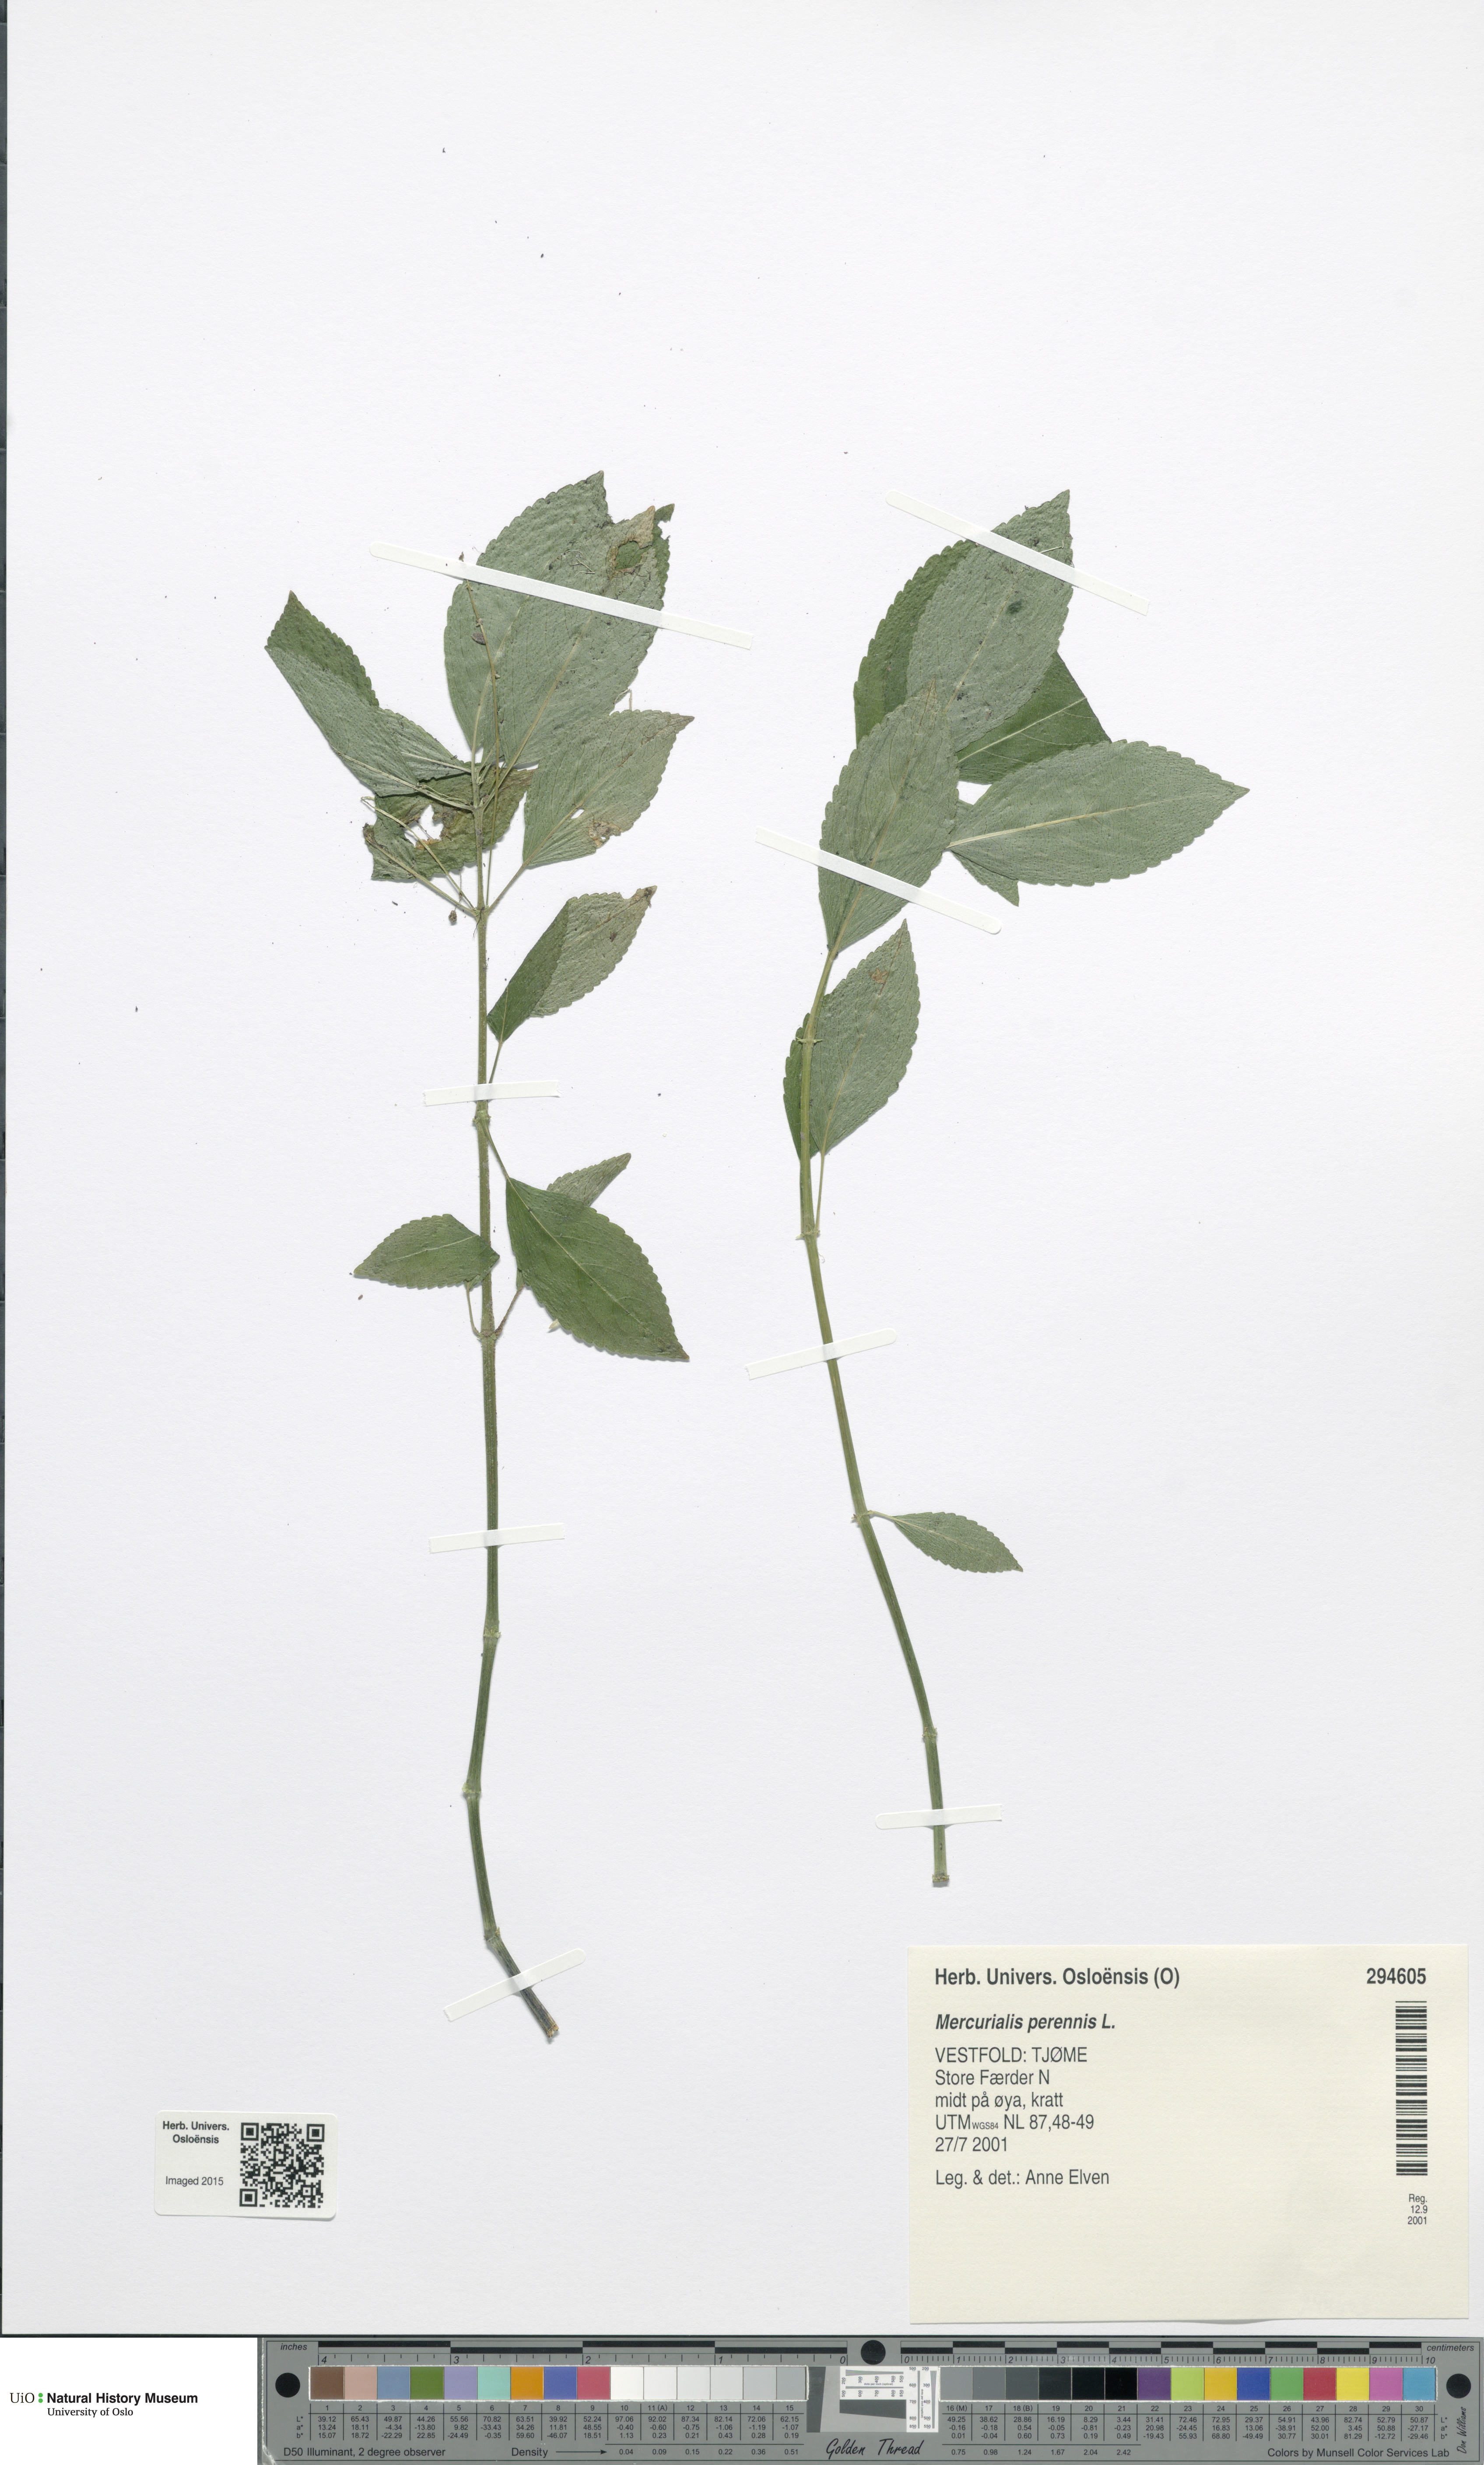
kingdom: Plantae
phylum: Tracheophyta
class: Magnoliopsida
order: Malpighiales
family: Euphorbiaceae
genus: Mercurialis
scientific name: Mercurialis perennis
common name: Dog mercury
